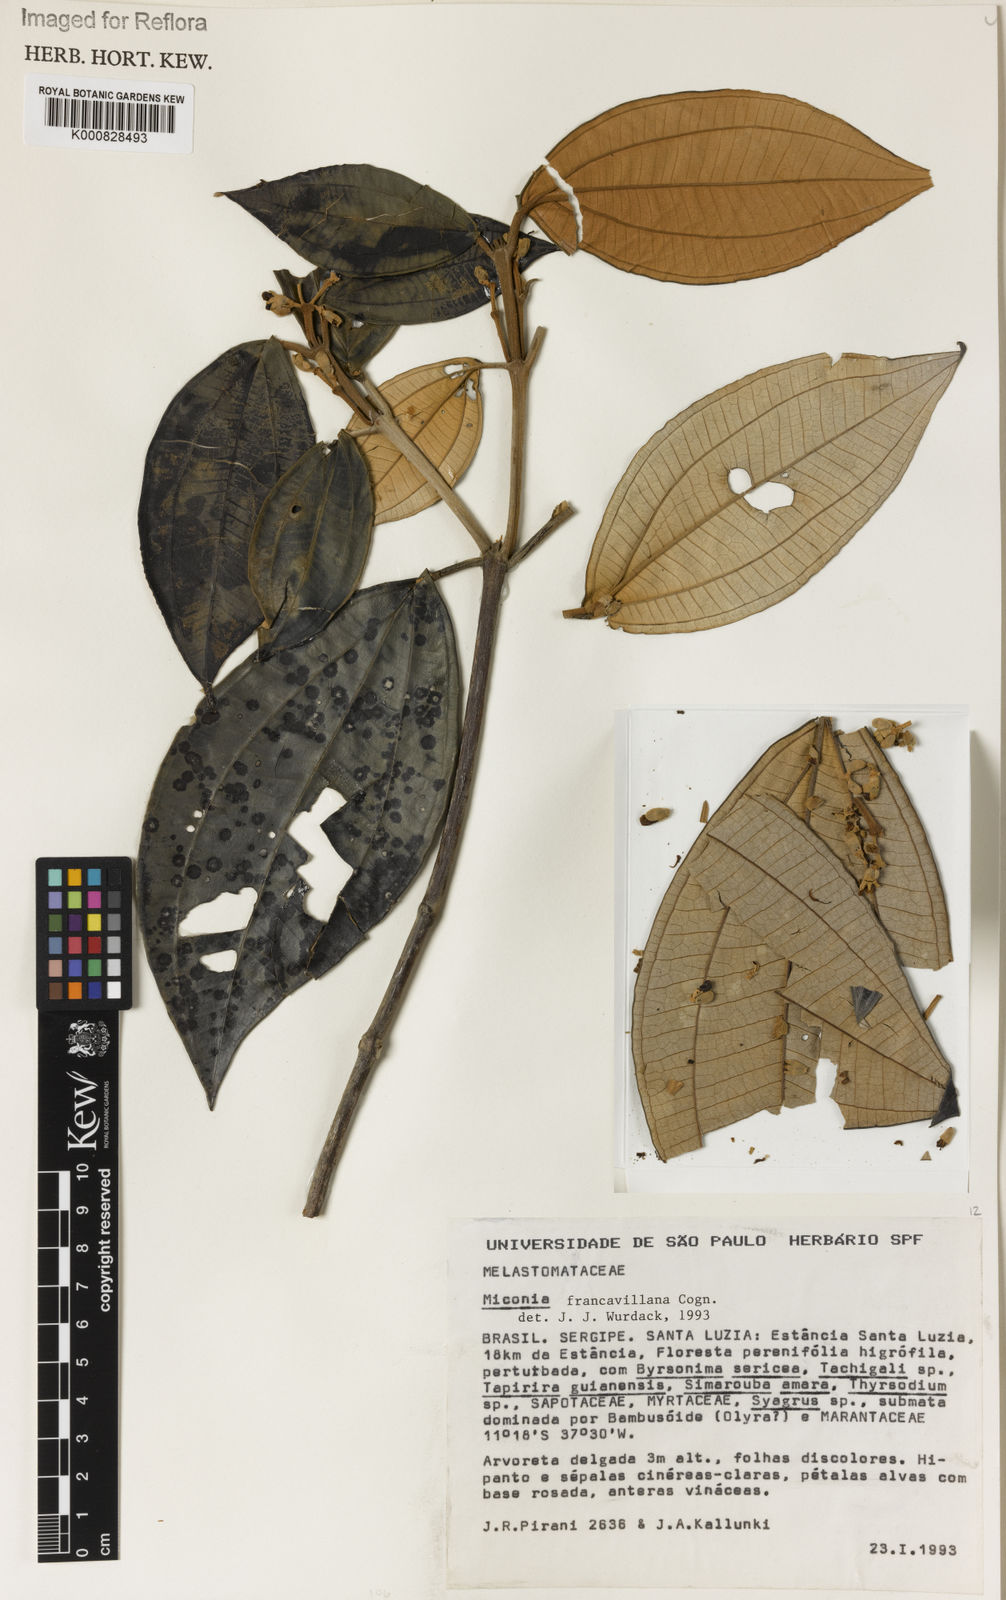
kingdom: Plantae
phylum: Tracheophyta
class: Magnoliopsida
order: Myrtales
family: Melastomataceae
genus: Miconia
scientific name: Miconia francavillana
